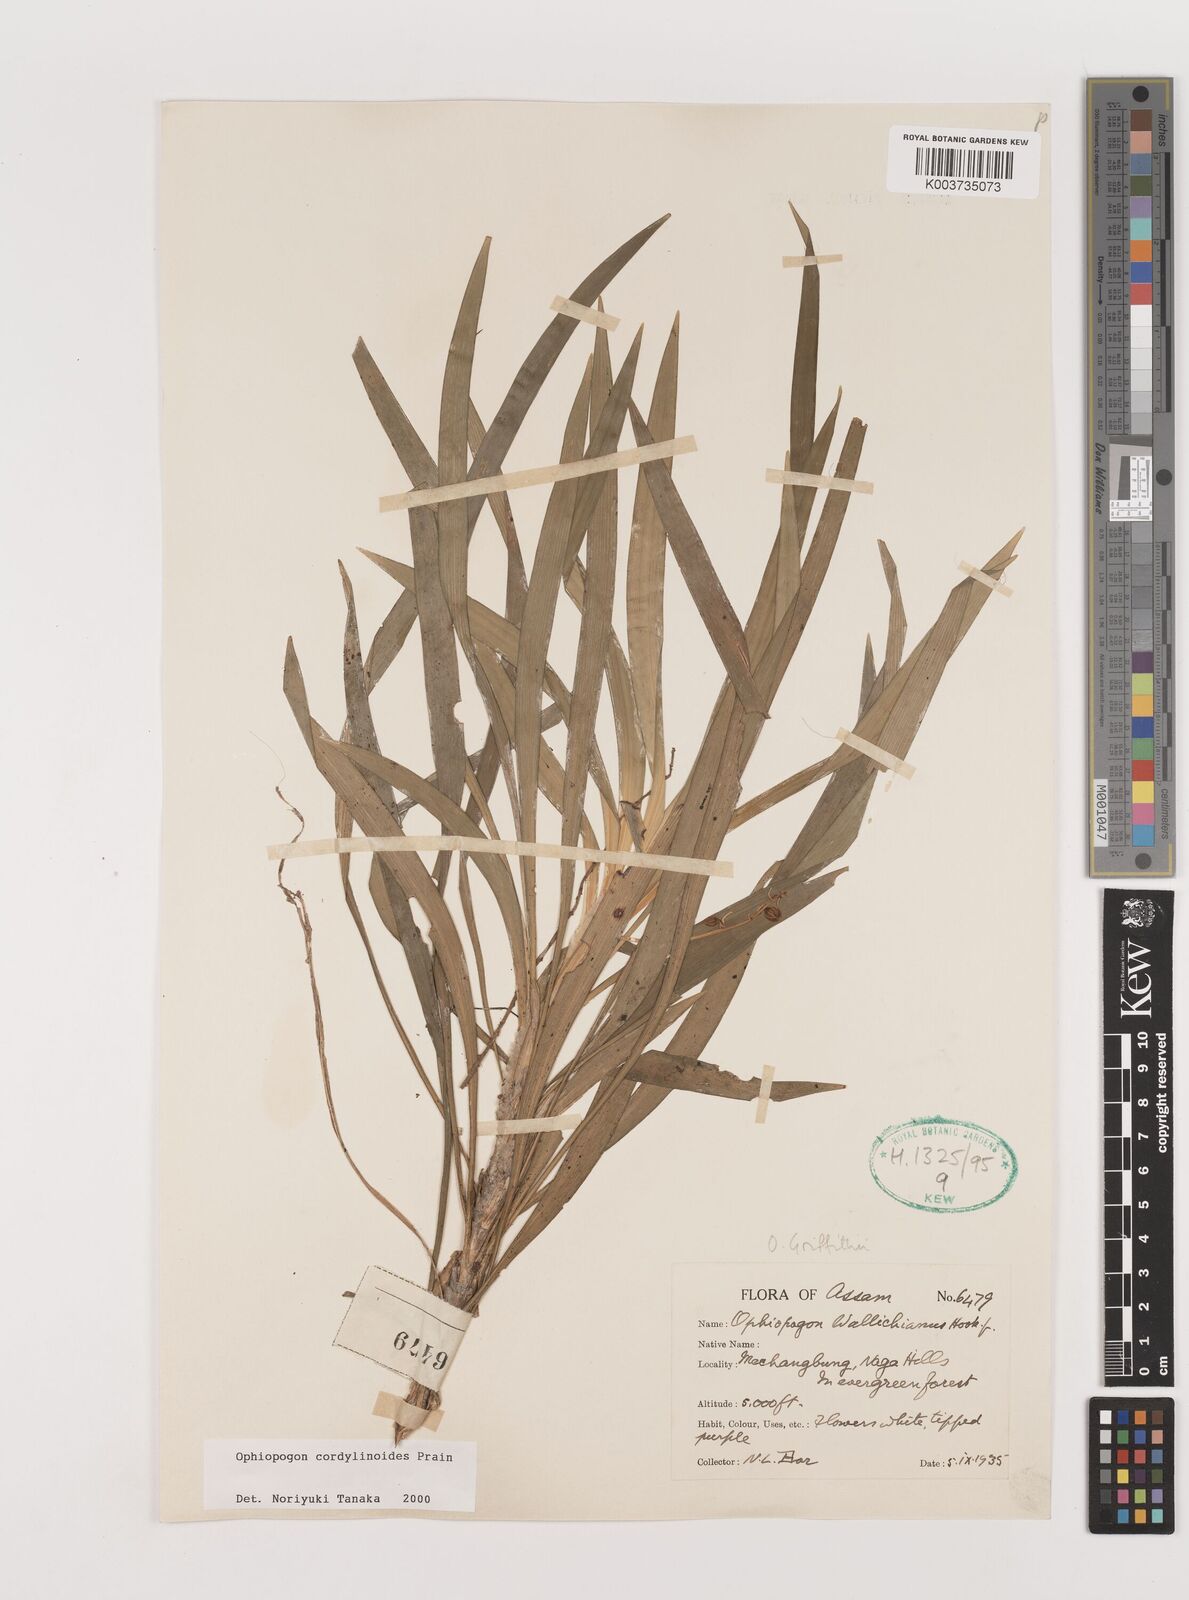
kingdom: Plantae
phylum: Tracheophyta
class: Liliopsida
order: Asparagales
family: Asparagaceae
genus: Ophiopogon
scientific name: Ophiopogon cordylinoides
